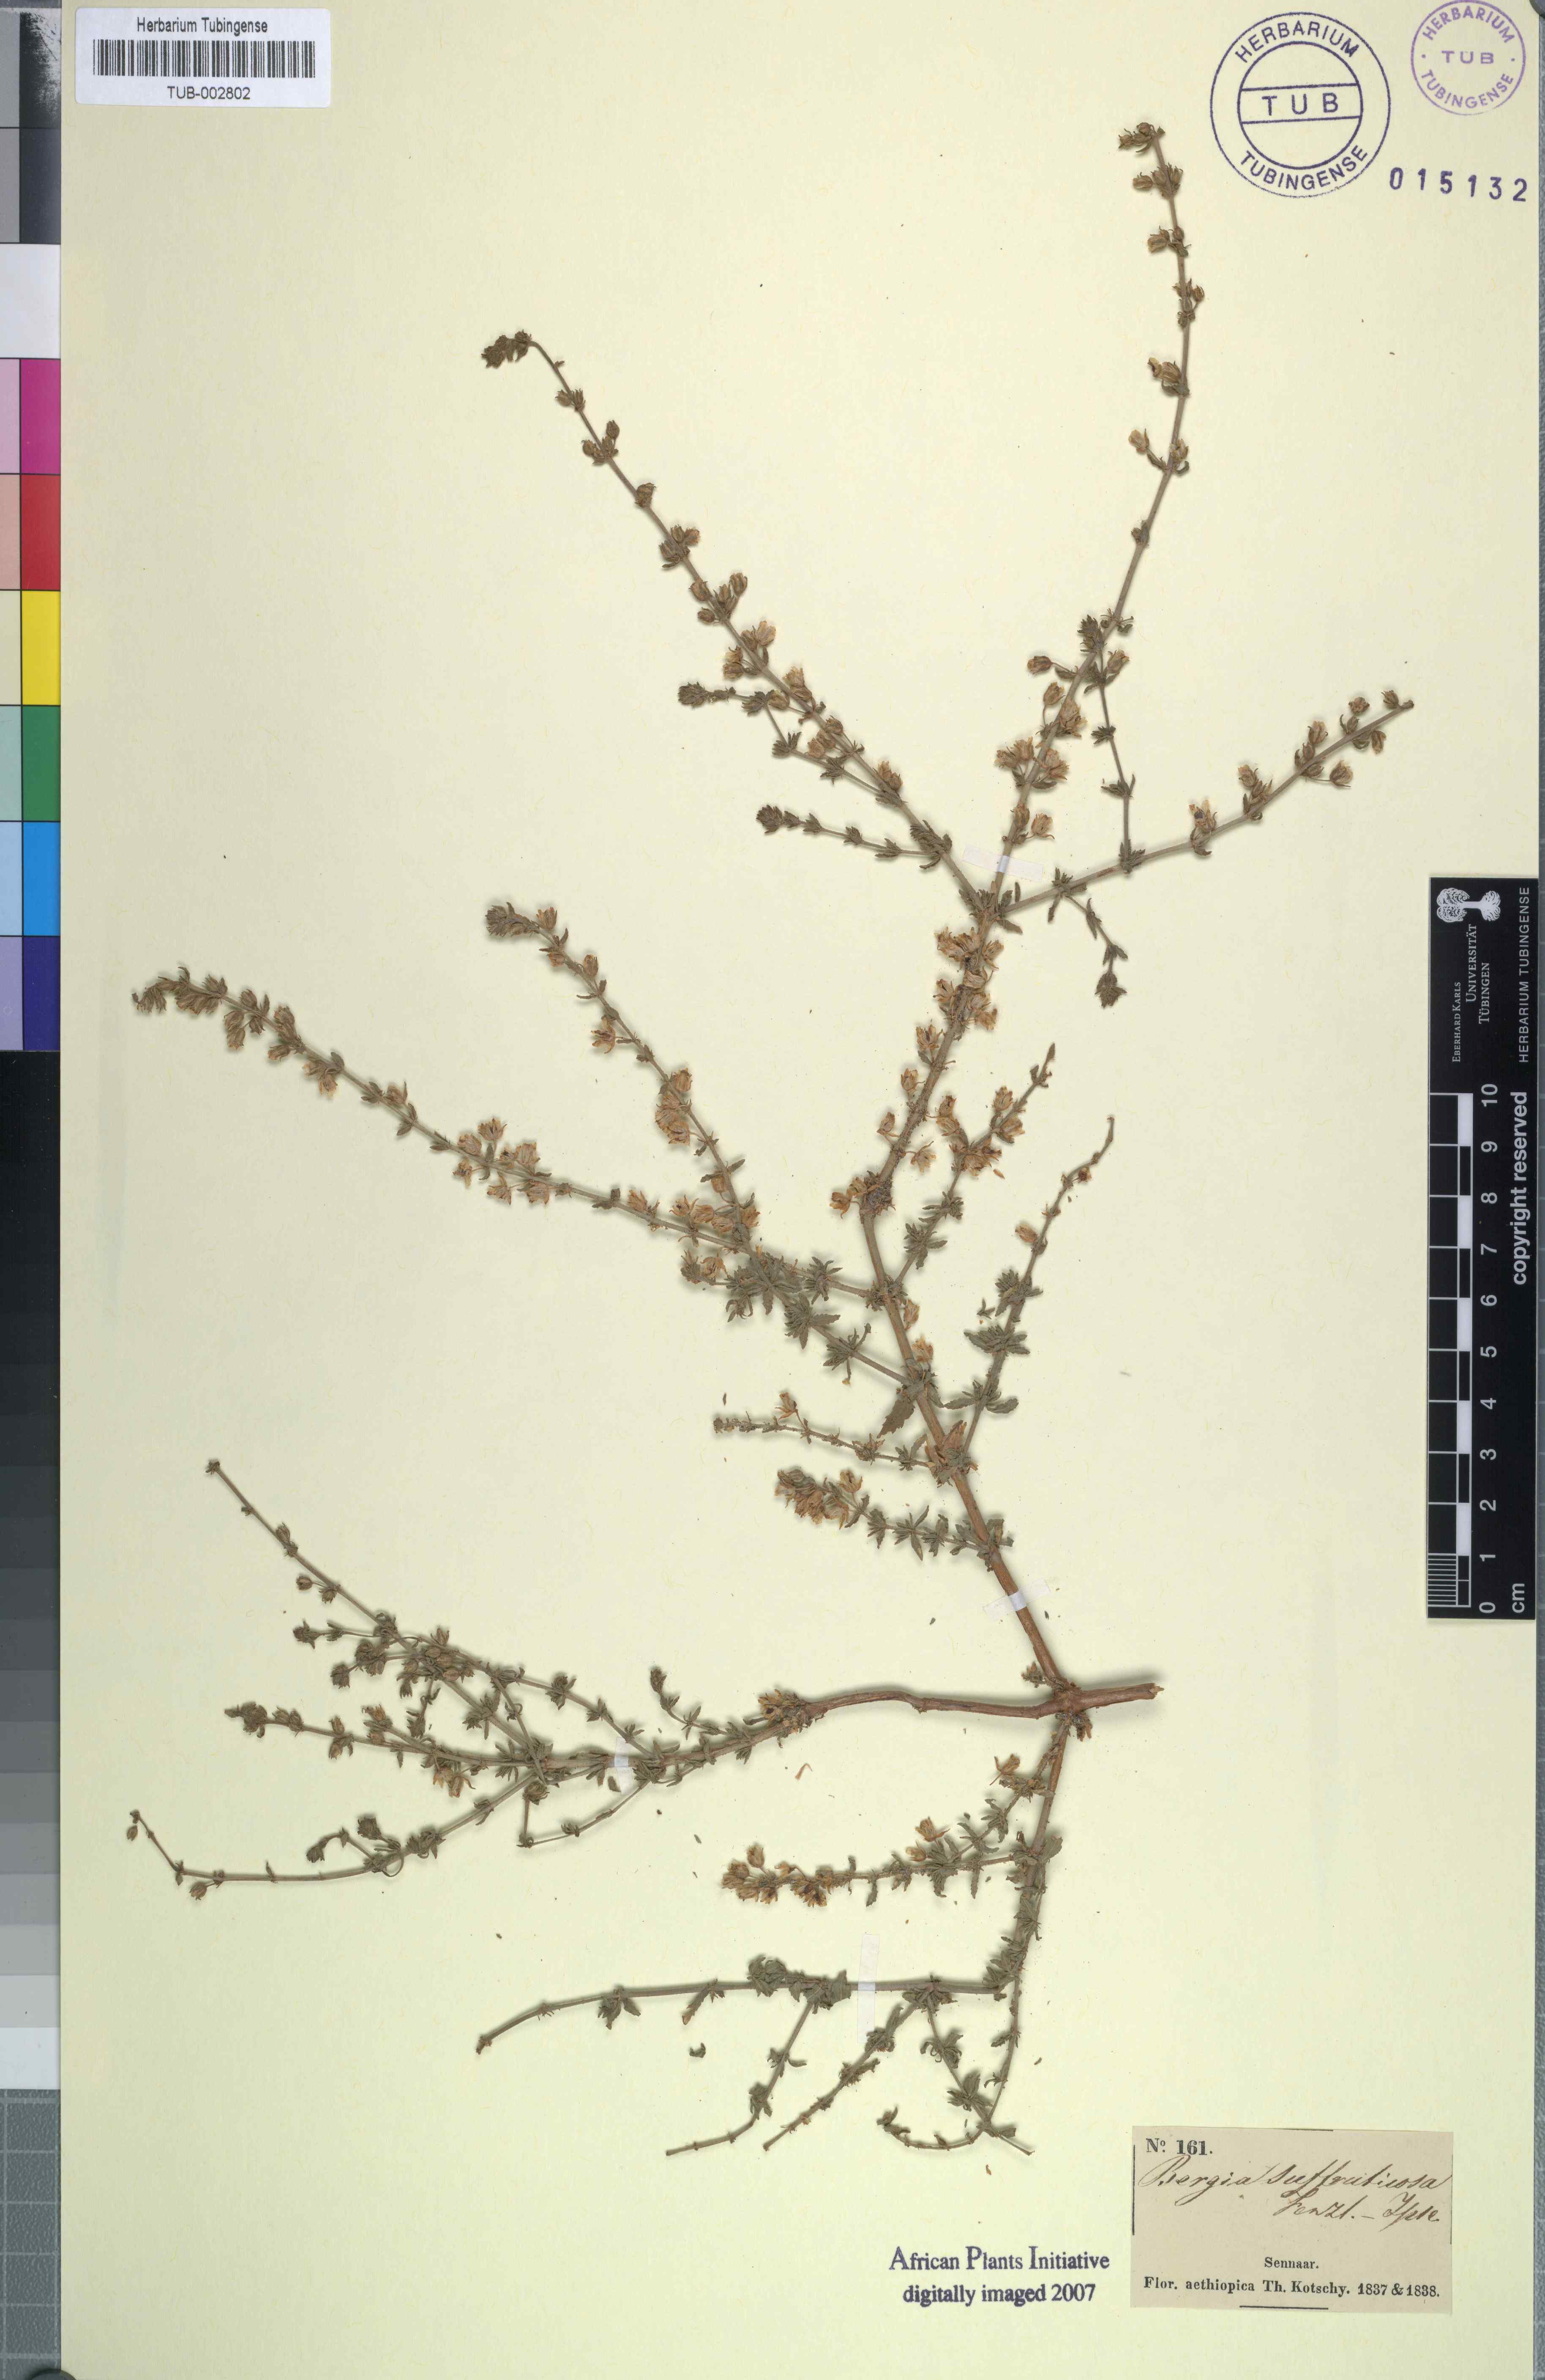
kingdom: Plantae
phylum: Tracheophyta
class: Magnoliopsida
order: Malpighiales
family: Elatinaceae
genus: Bergia
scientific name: Bergia suffruticosa
